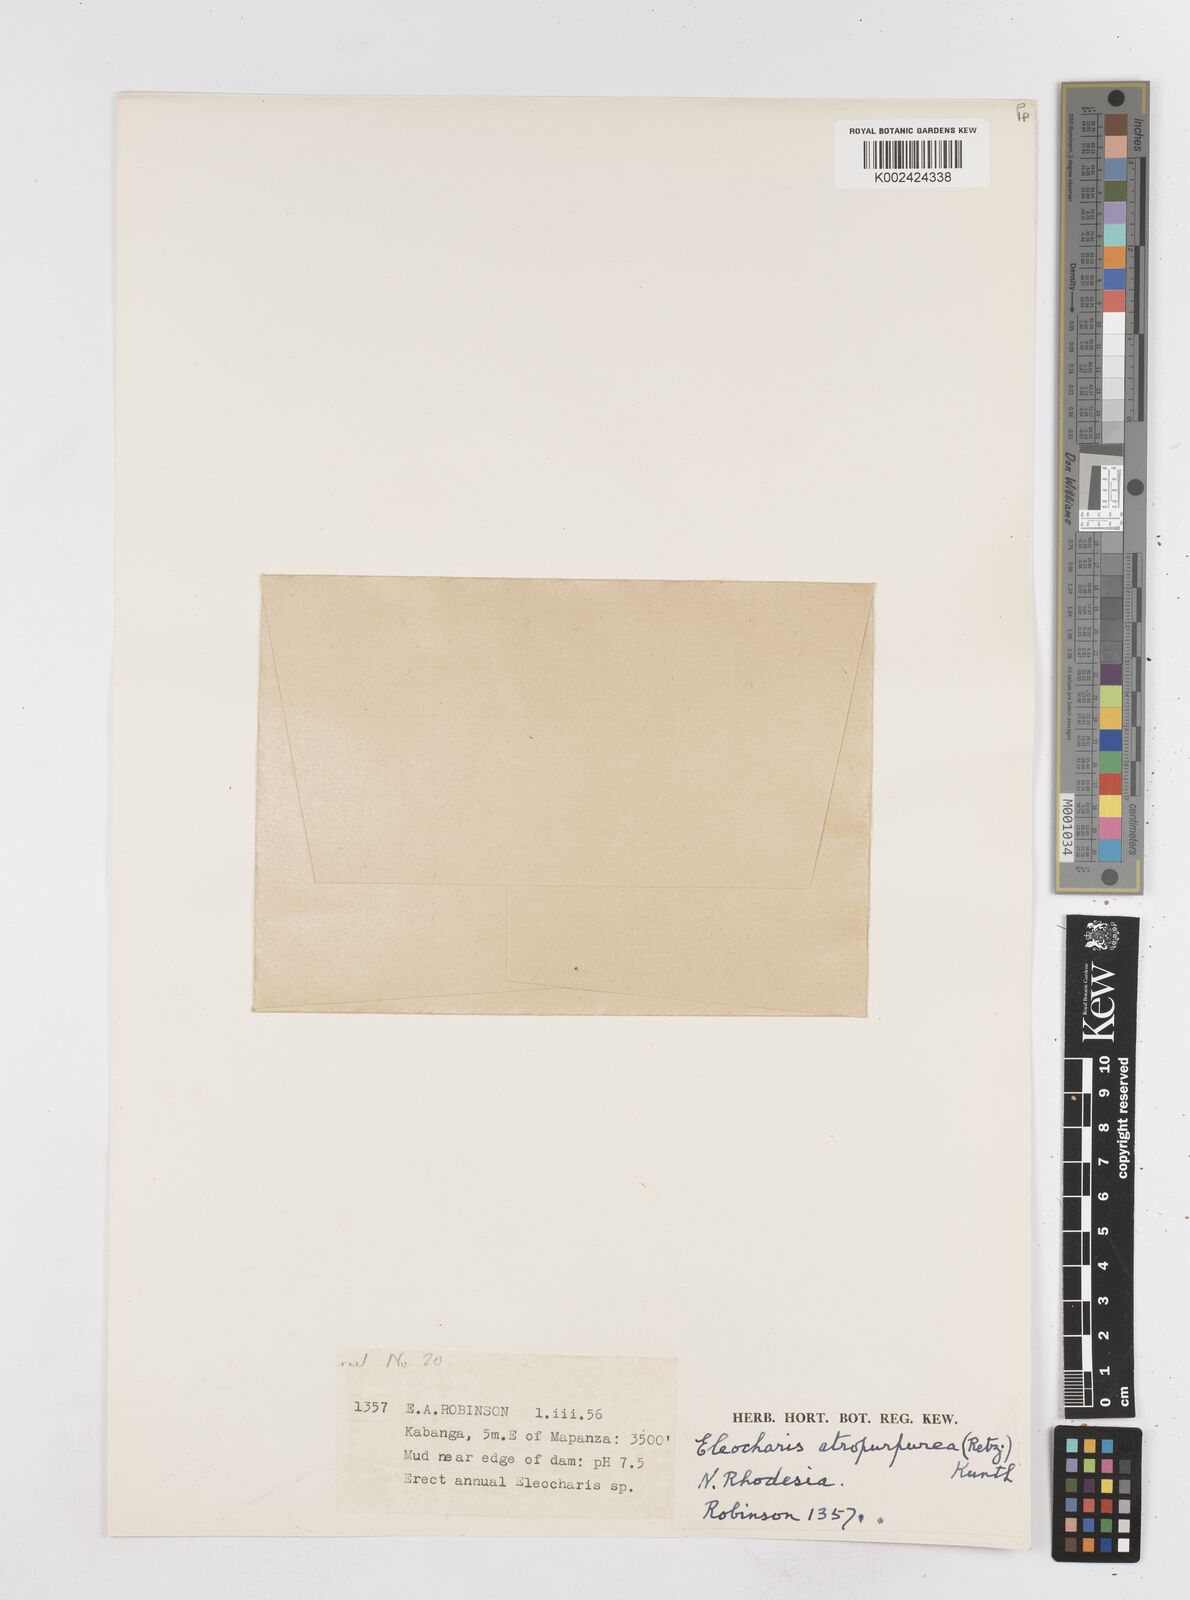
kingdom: Plantae
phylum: Tracheophyta
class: Liliopsida
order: Poales
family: Cyperaceae
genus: Eleocharis
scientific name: Eleocharis atropurpurea
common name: Purple spikerush
